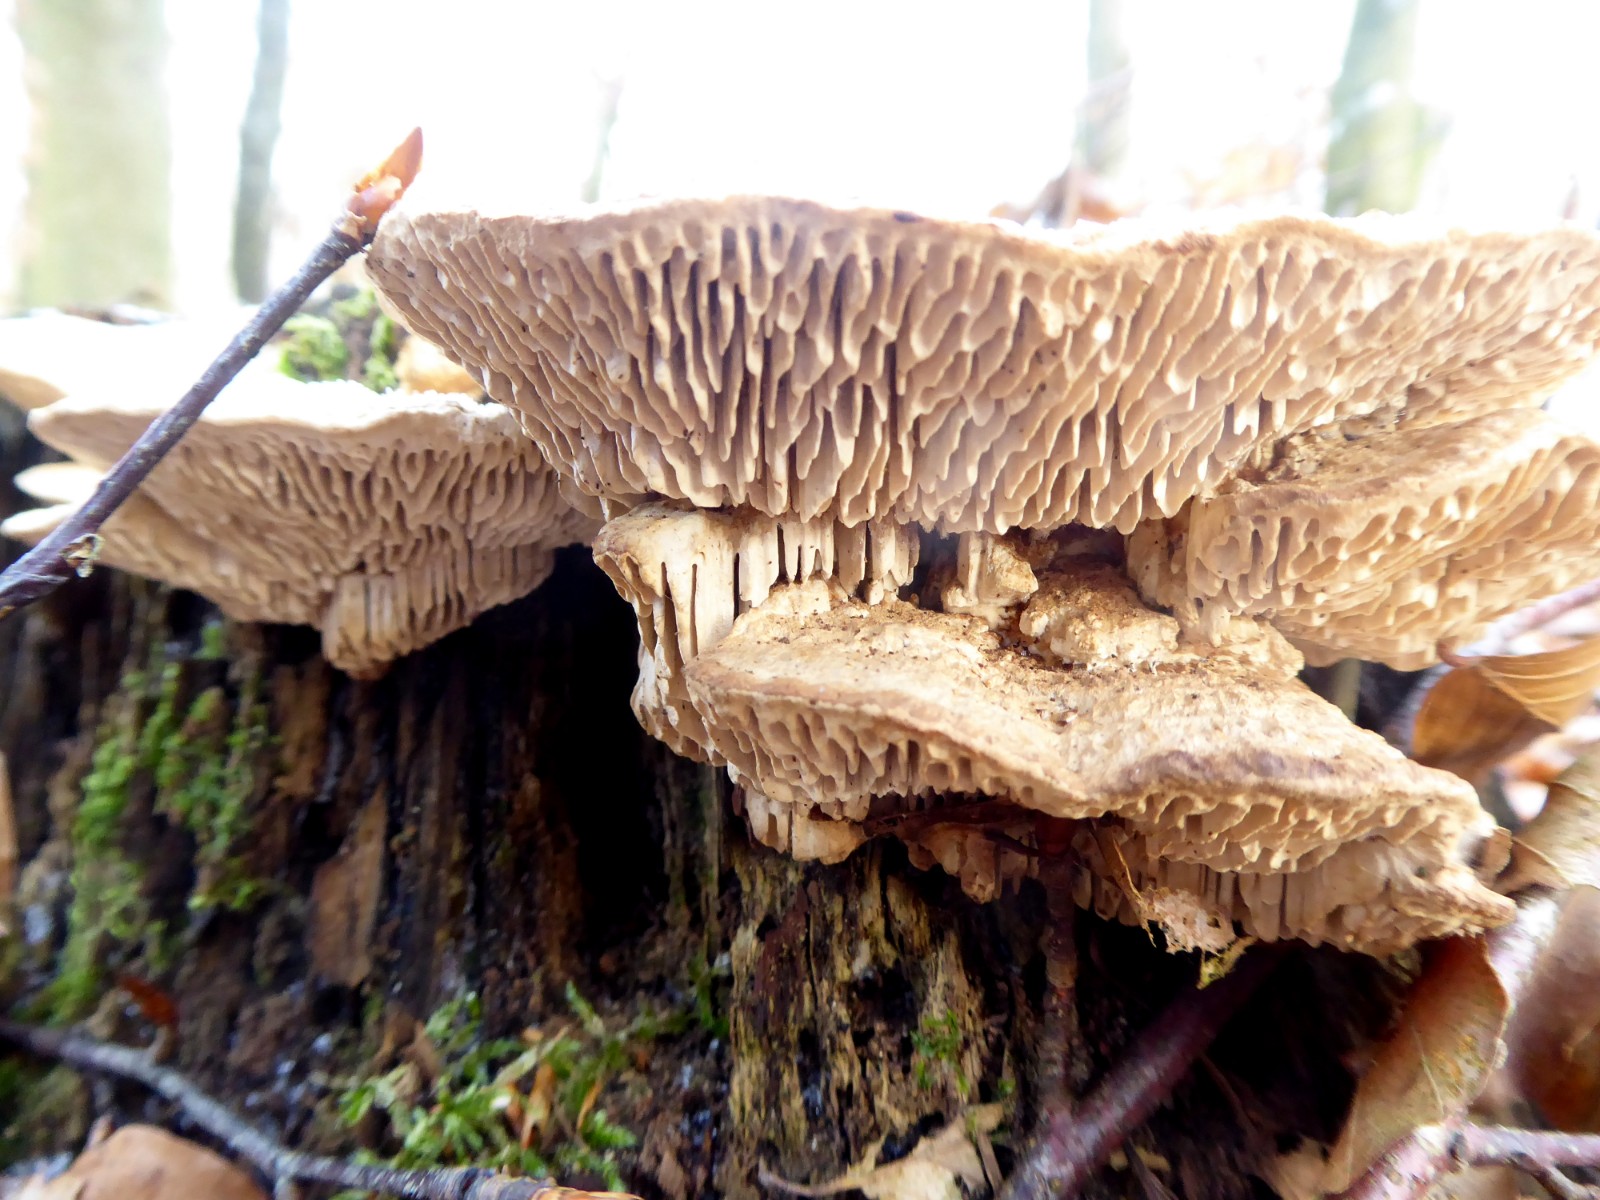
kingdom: Fungi
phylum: Basidiomycota
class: Agaricomycetes
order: Polyporales
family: Fomitopsidaceae
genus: Daedalea
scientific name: Daedalea quercina
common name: ege-labyrintsvamp
